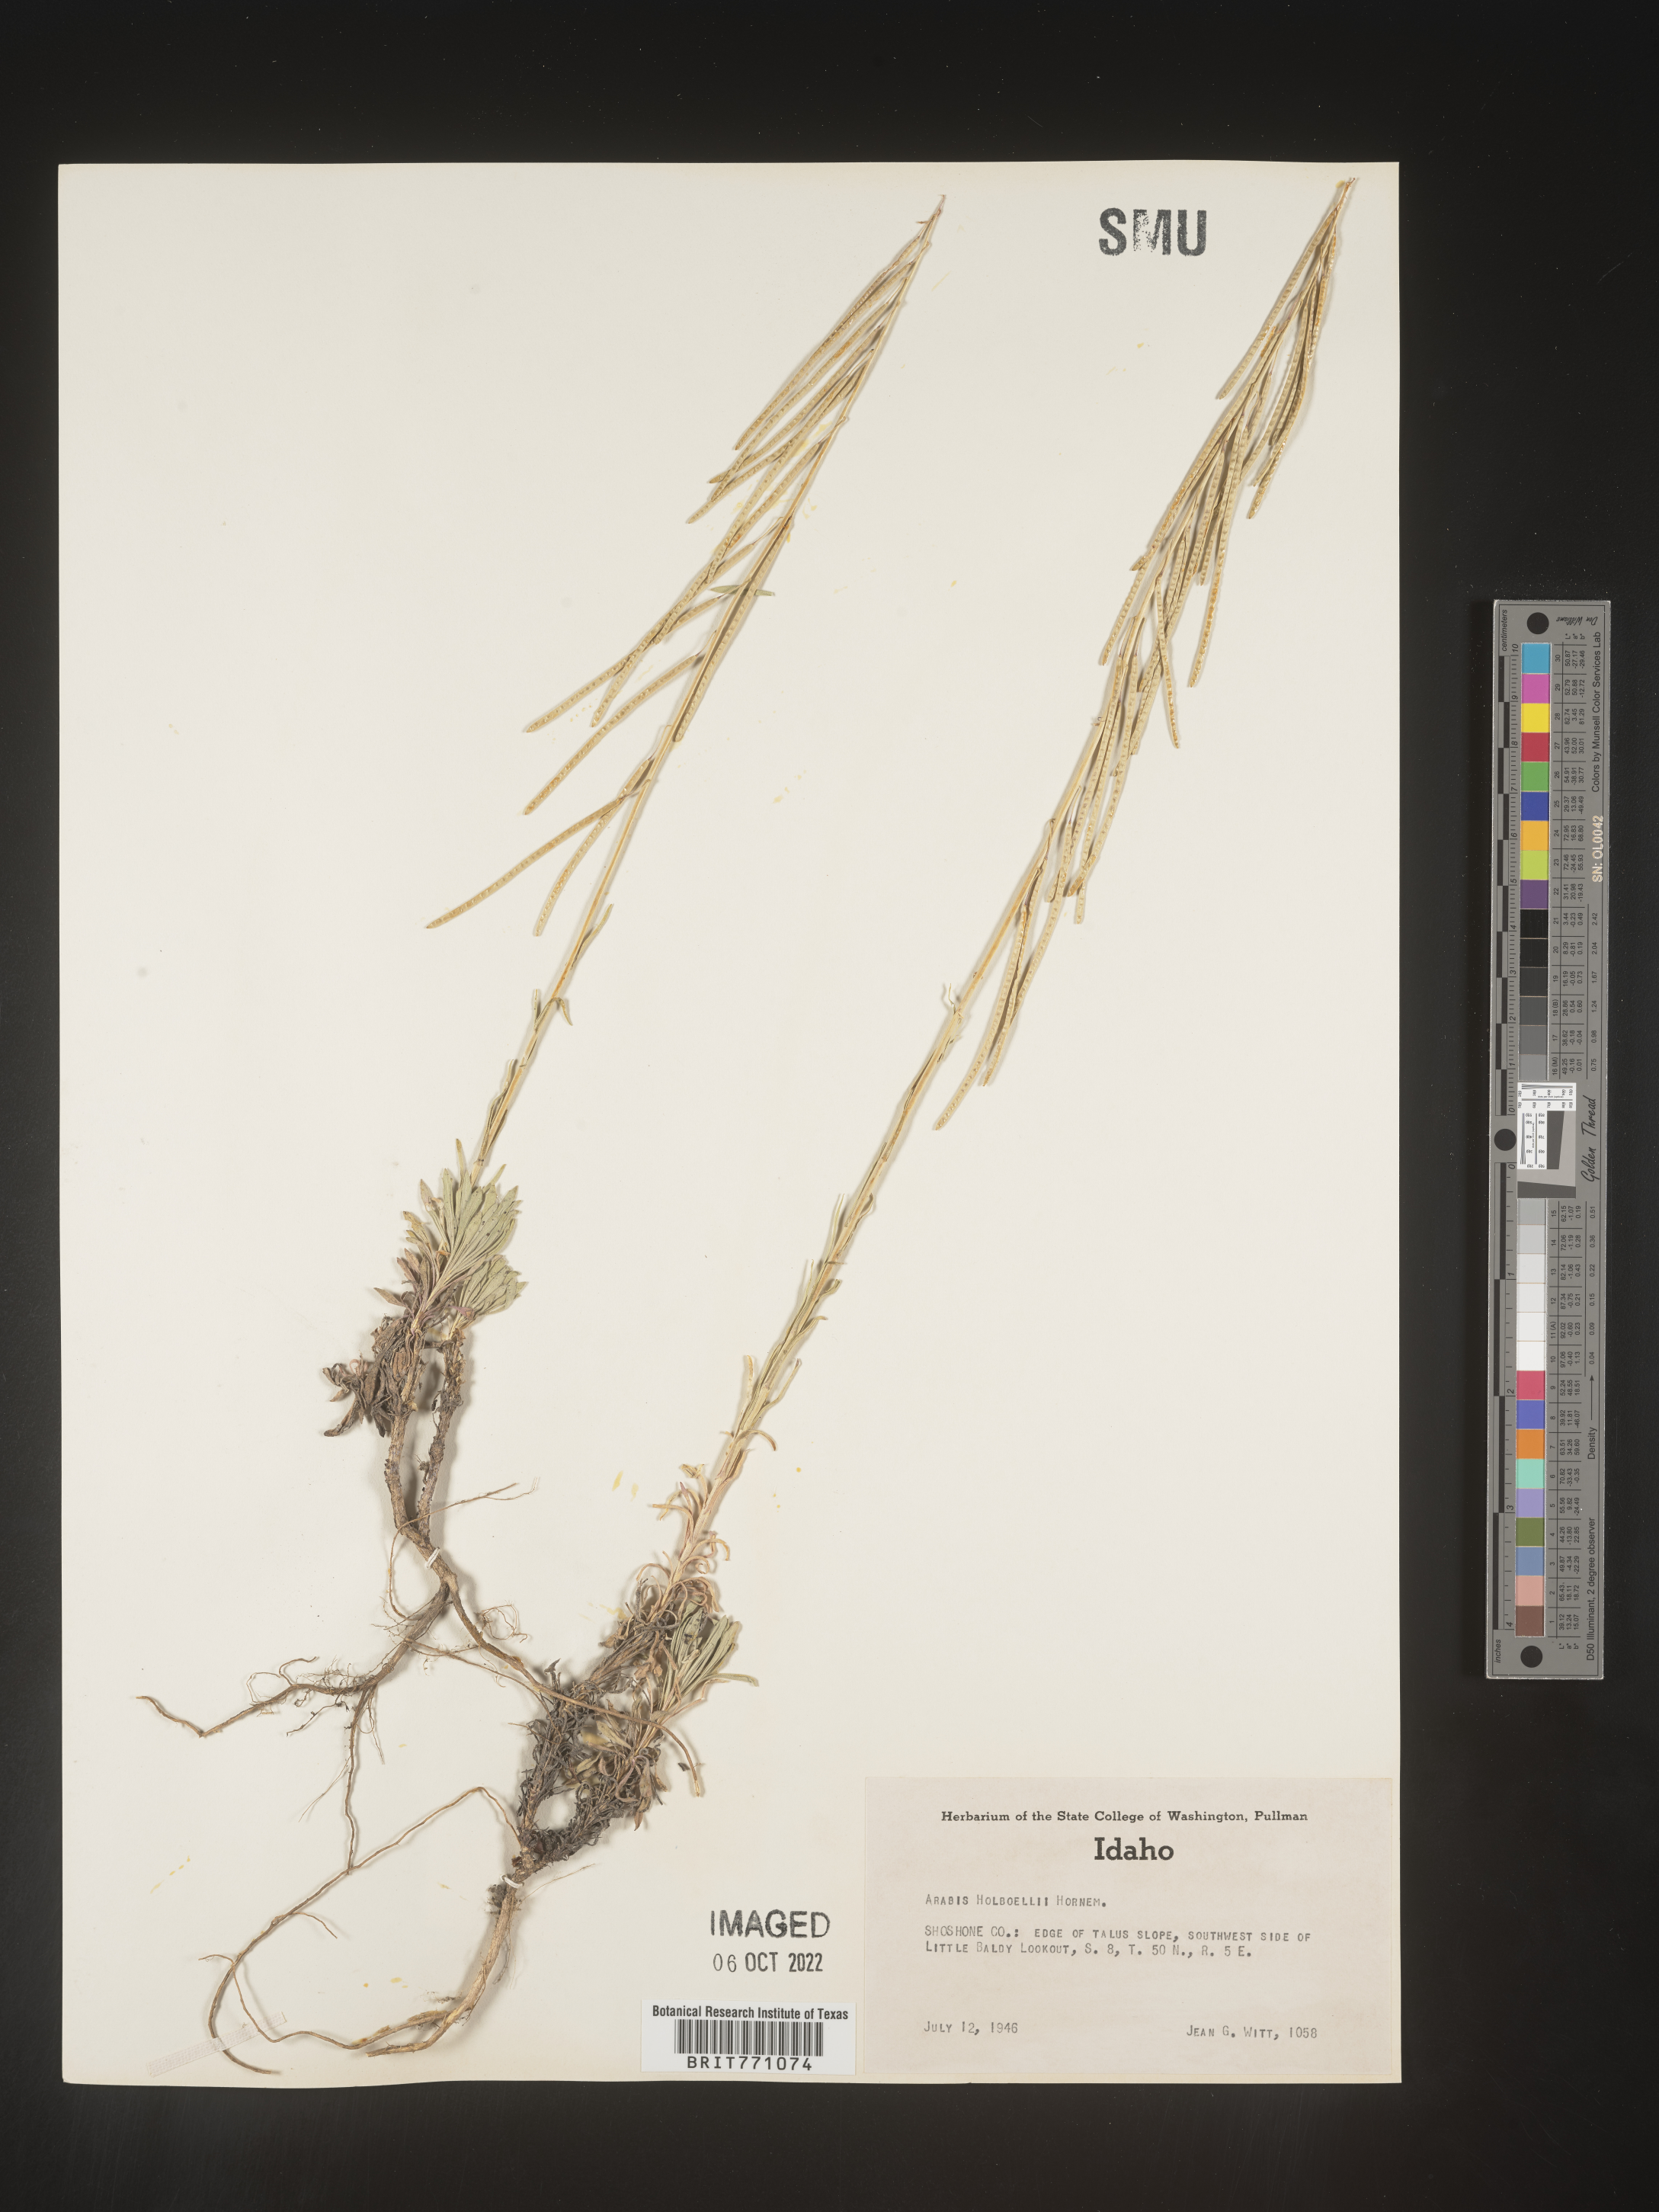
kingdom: Plantae
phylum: Tracheophyta
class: Magnoliopsida
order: Brassicales
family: Brassicaceae
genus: Boechera
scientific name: Boechera holboellii
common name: Holboell's rockcress
